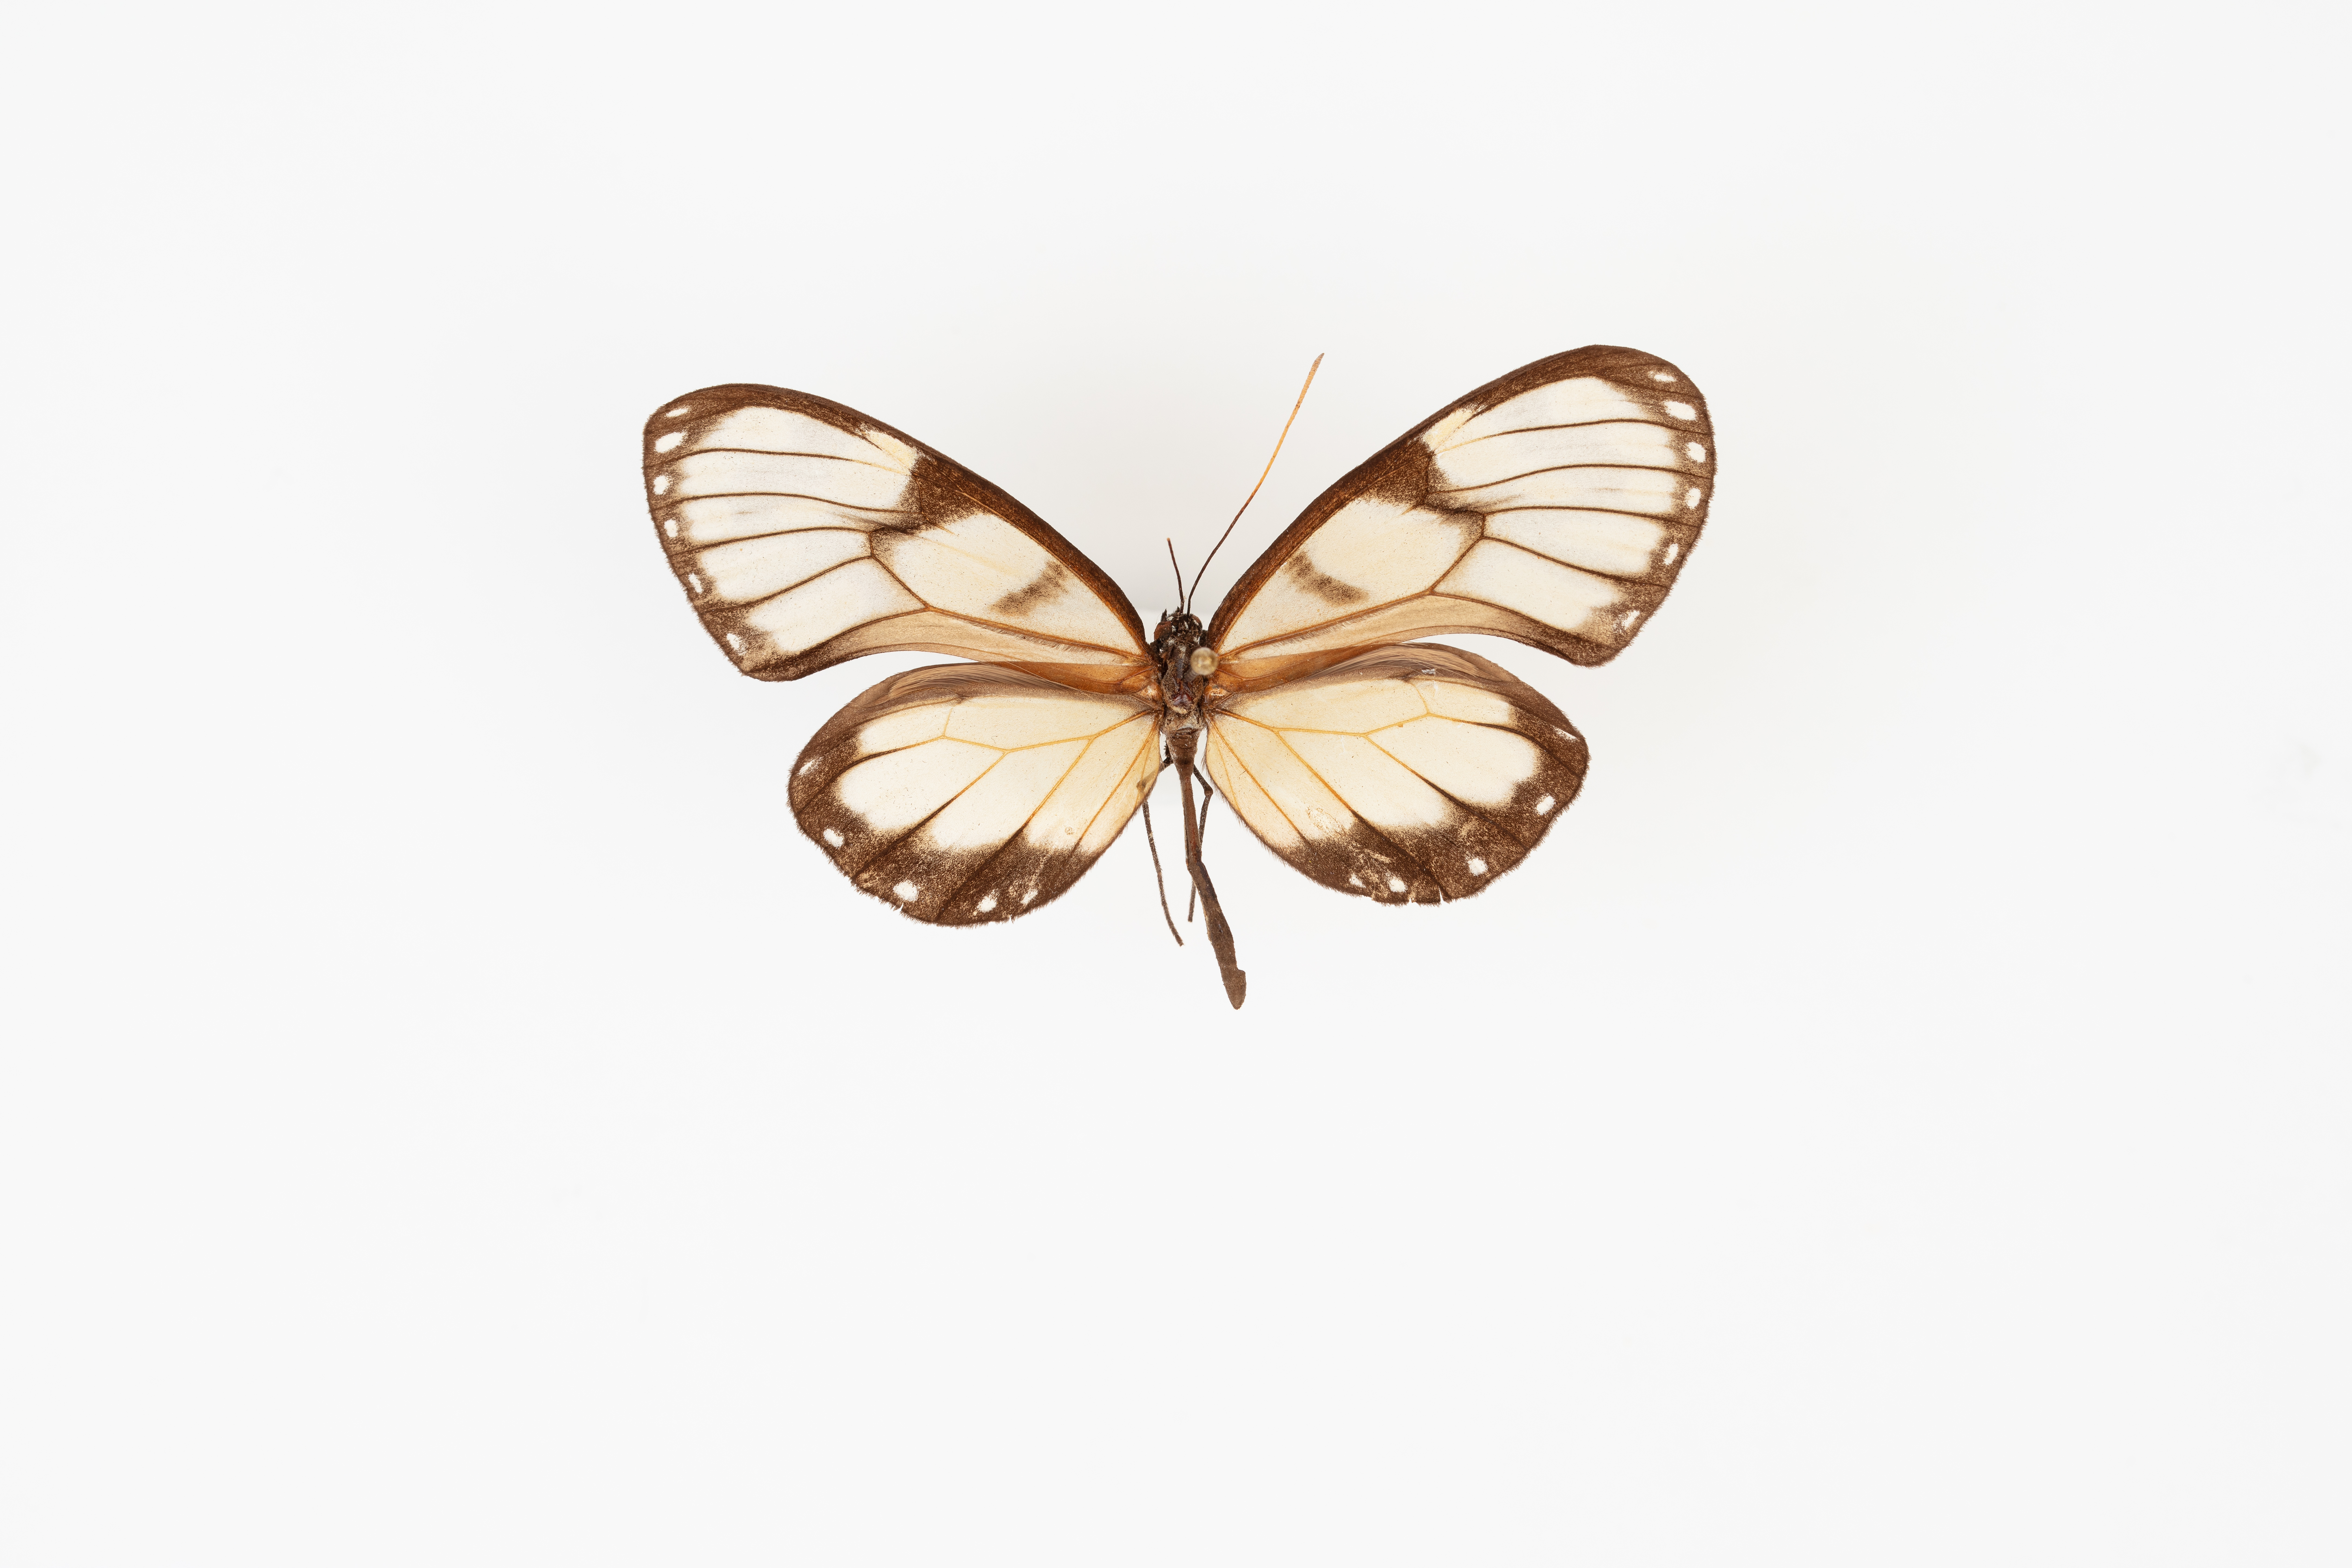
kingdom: Animalia
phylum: Arthropoda
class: Insecta
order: Lepidoptera
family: Nymphalidae
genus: Godyris
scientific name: Godyris zavaleta
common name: Zavaleta glasswing
